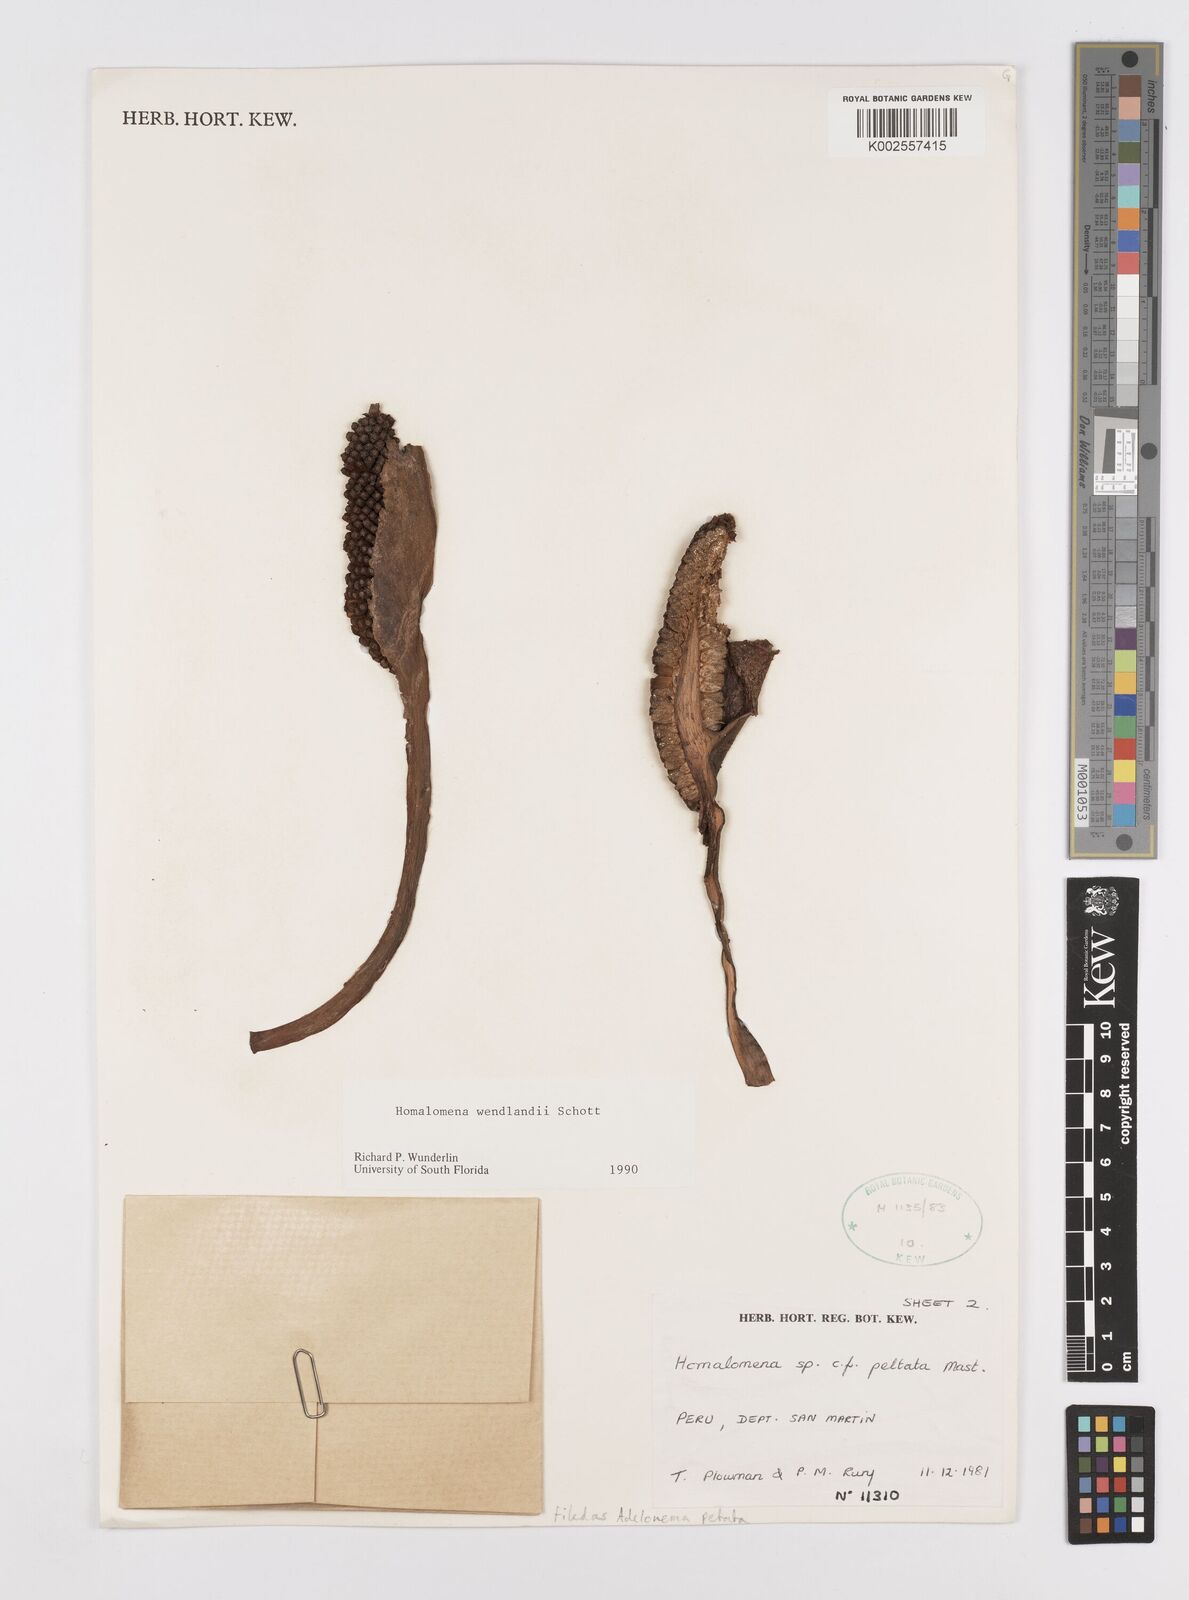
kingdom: Plantae
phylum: Tracheophyta
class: Liliopsida
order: Alismatales
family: Araceae
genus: Adelonema
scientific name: Adelonema peltatum
